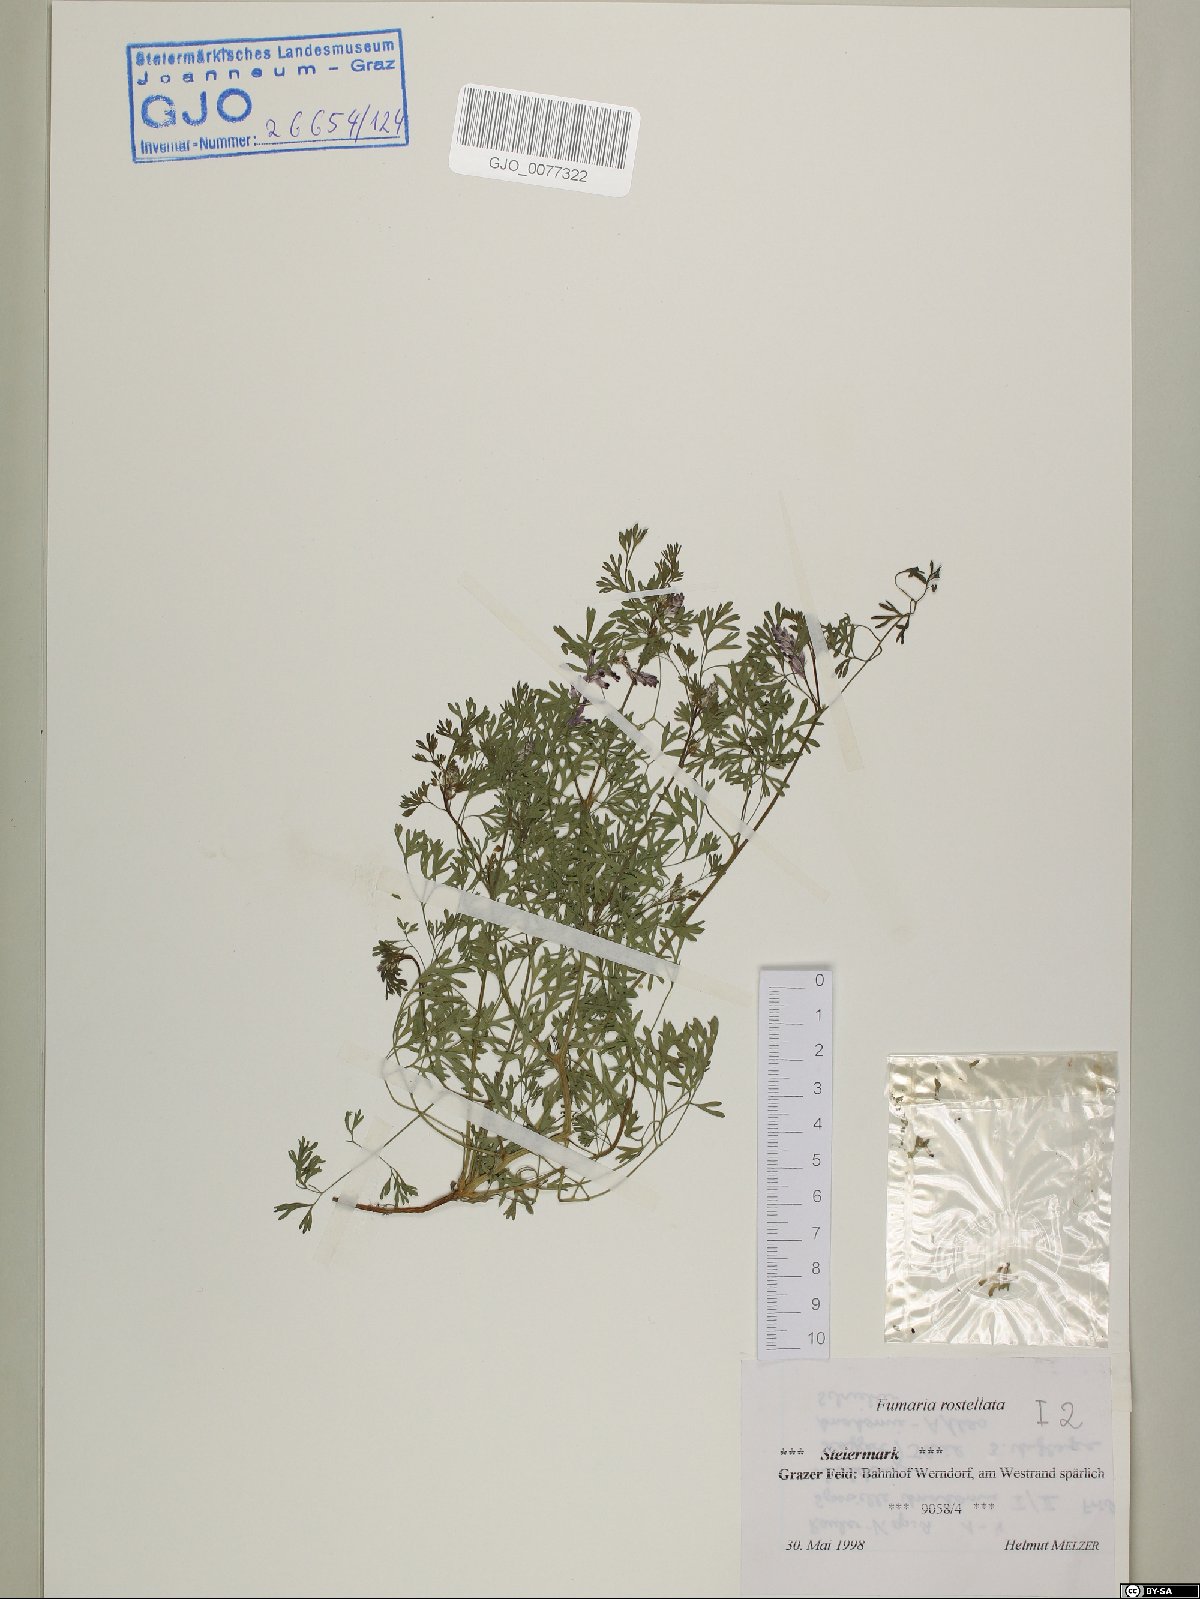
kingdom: Plantae
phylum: Tracheophyta
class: Magnoliopsida
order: Ranunculales
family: Papaveraceae
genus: Fumaria
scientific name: Fumaria rostellata
